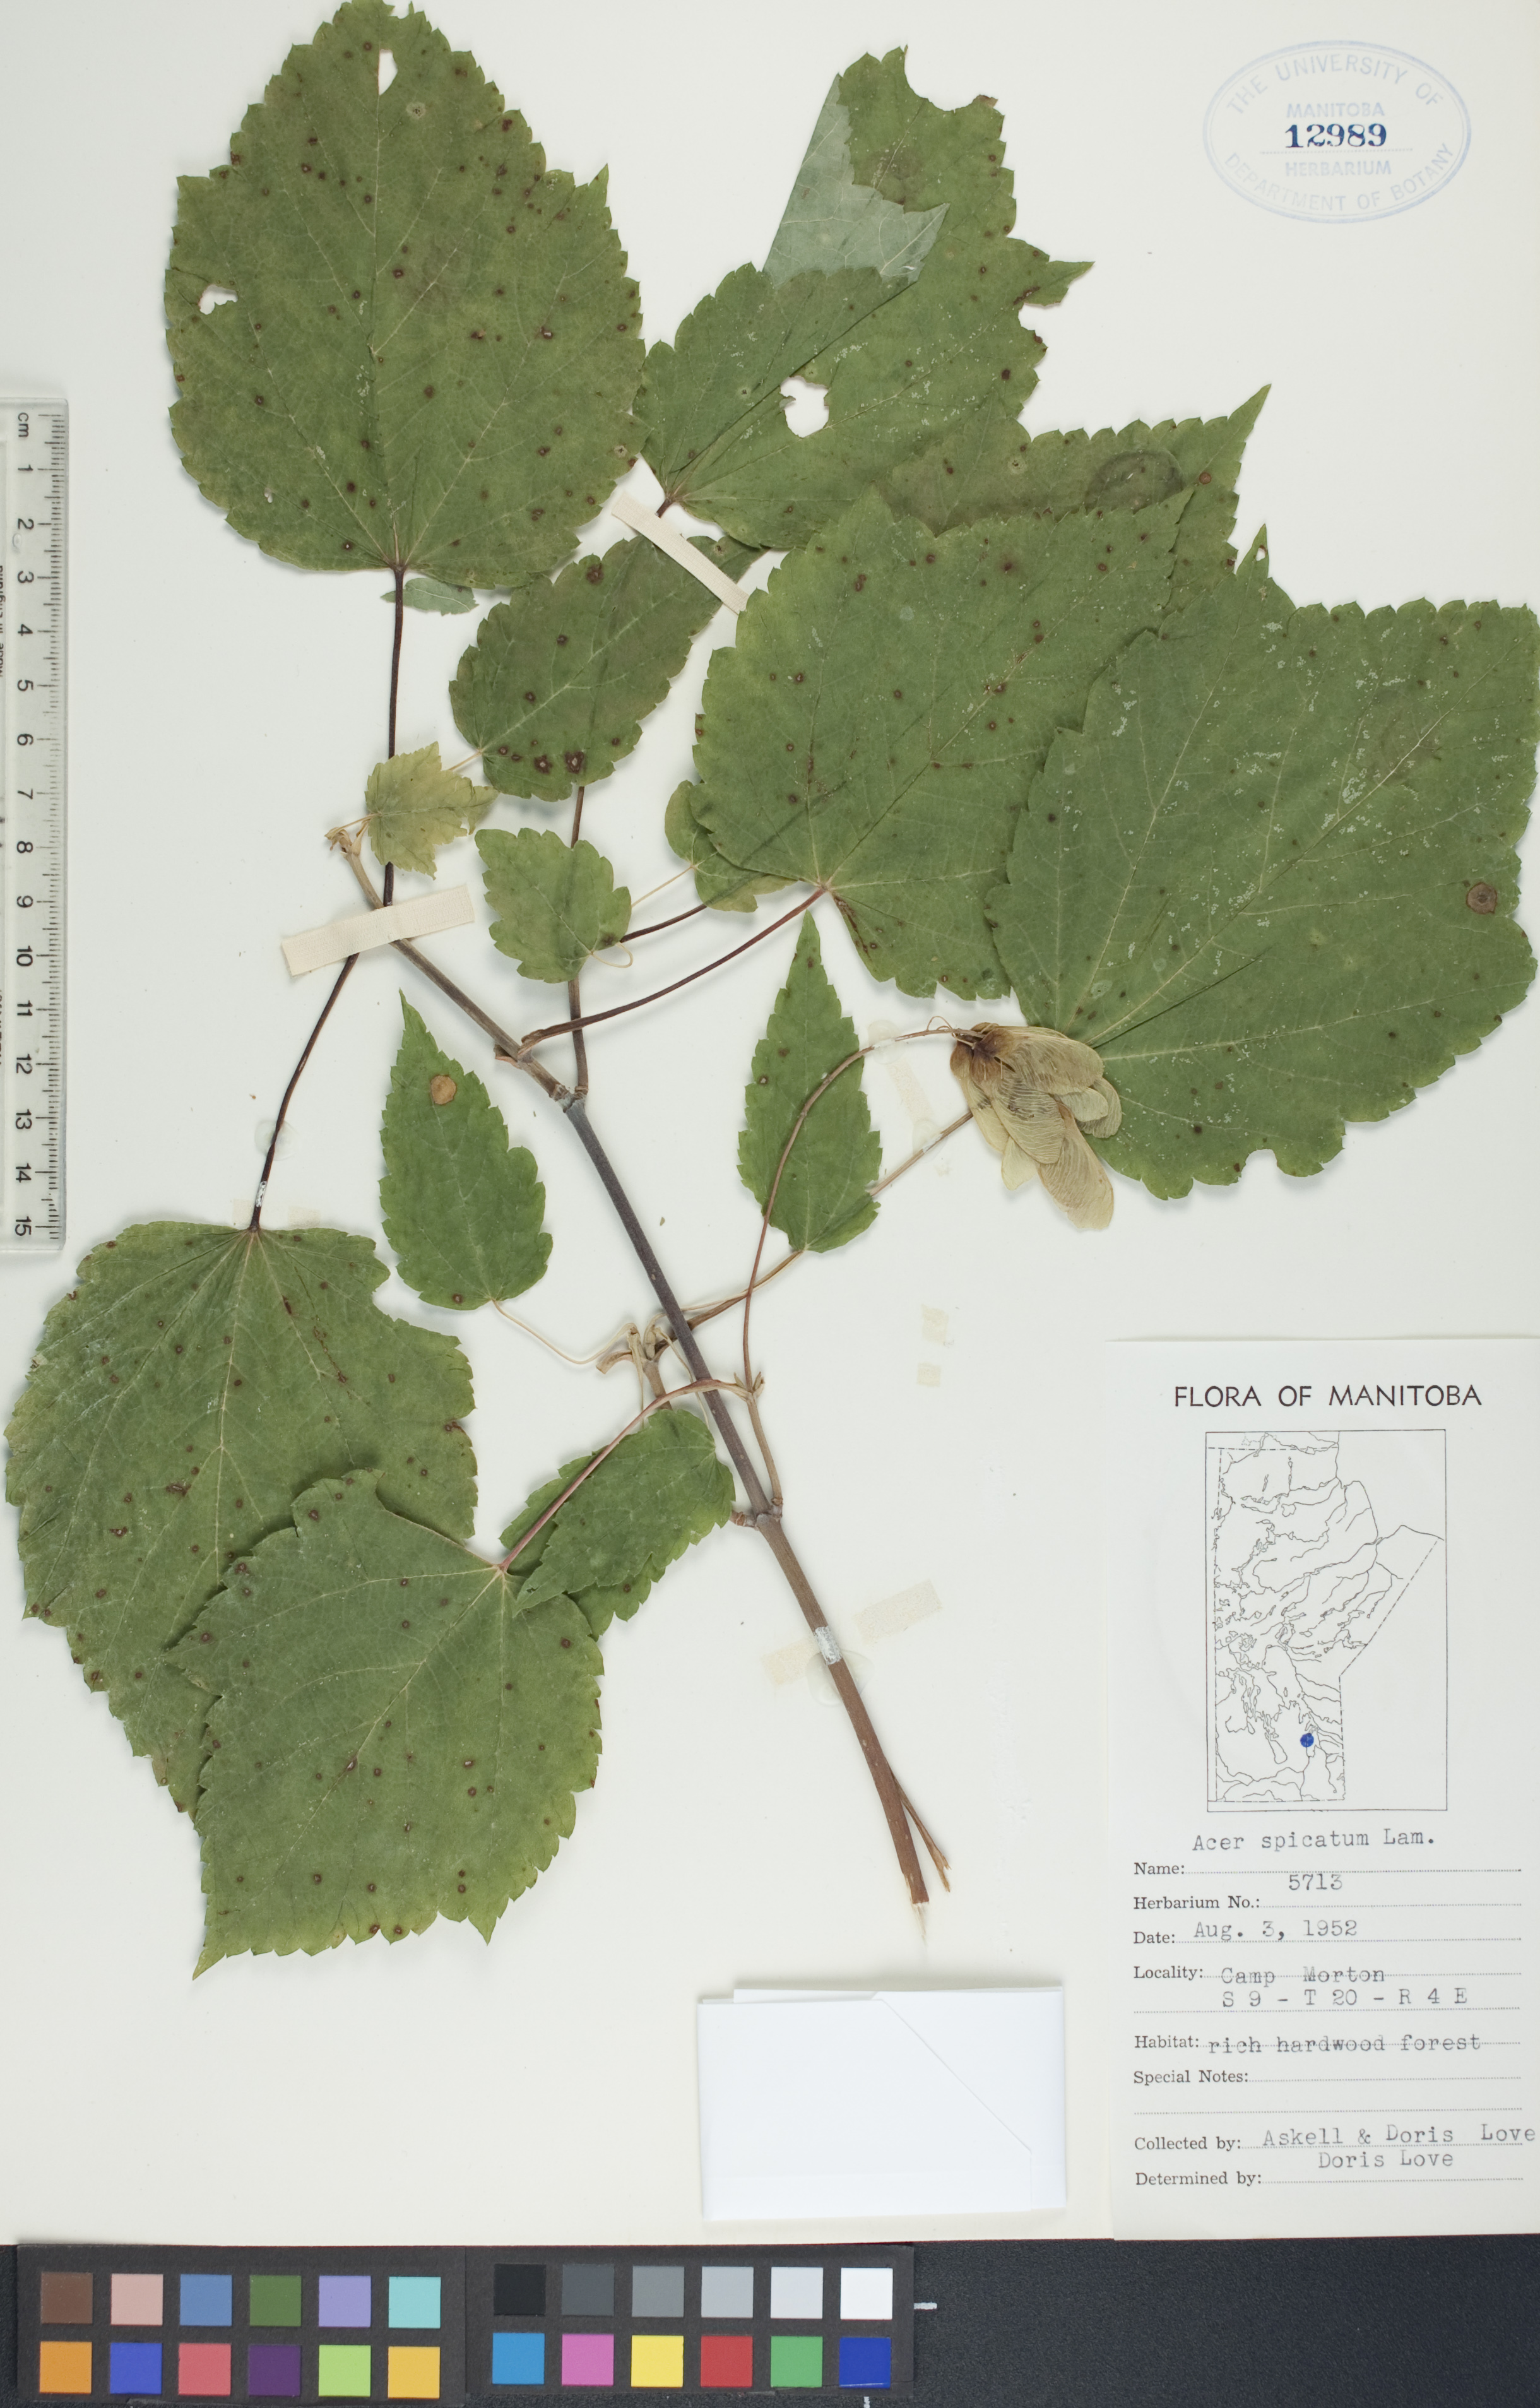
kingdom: Plantae
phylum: Tracheophyta
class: Magnoliopsida
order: Sapindales
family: Sapindaceae
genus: Acer
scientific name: Acer spicatum
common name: Mountain maple
